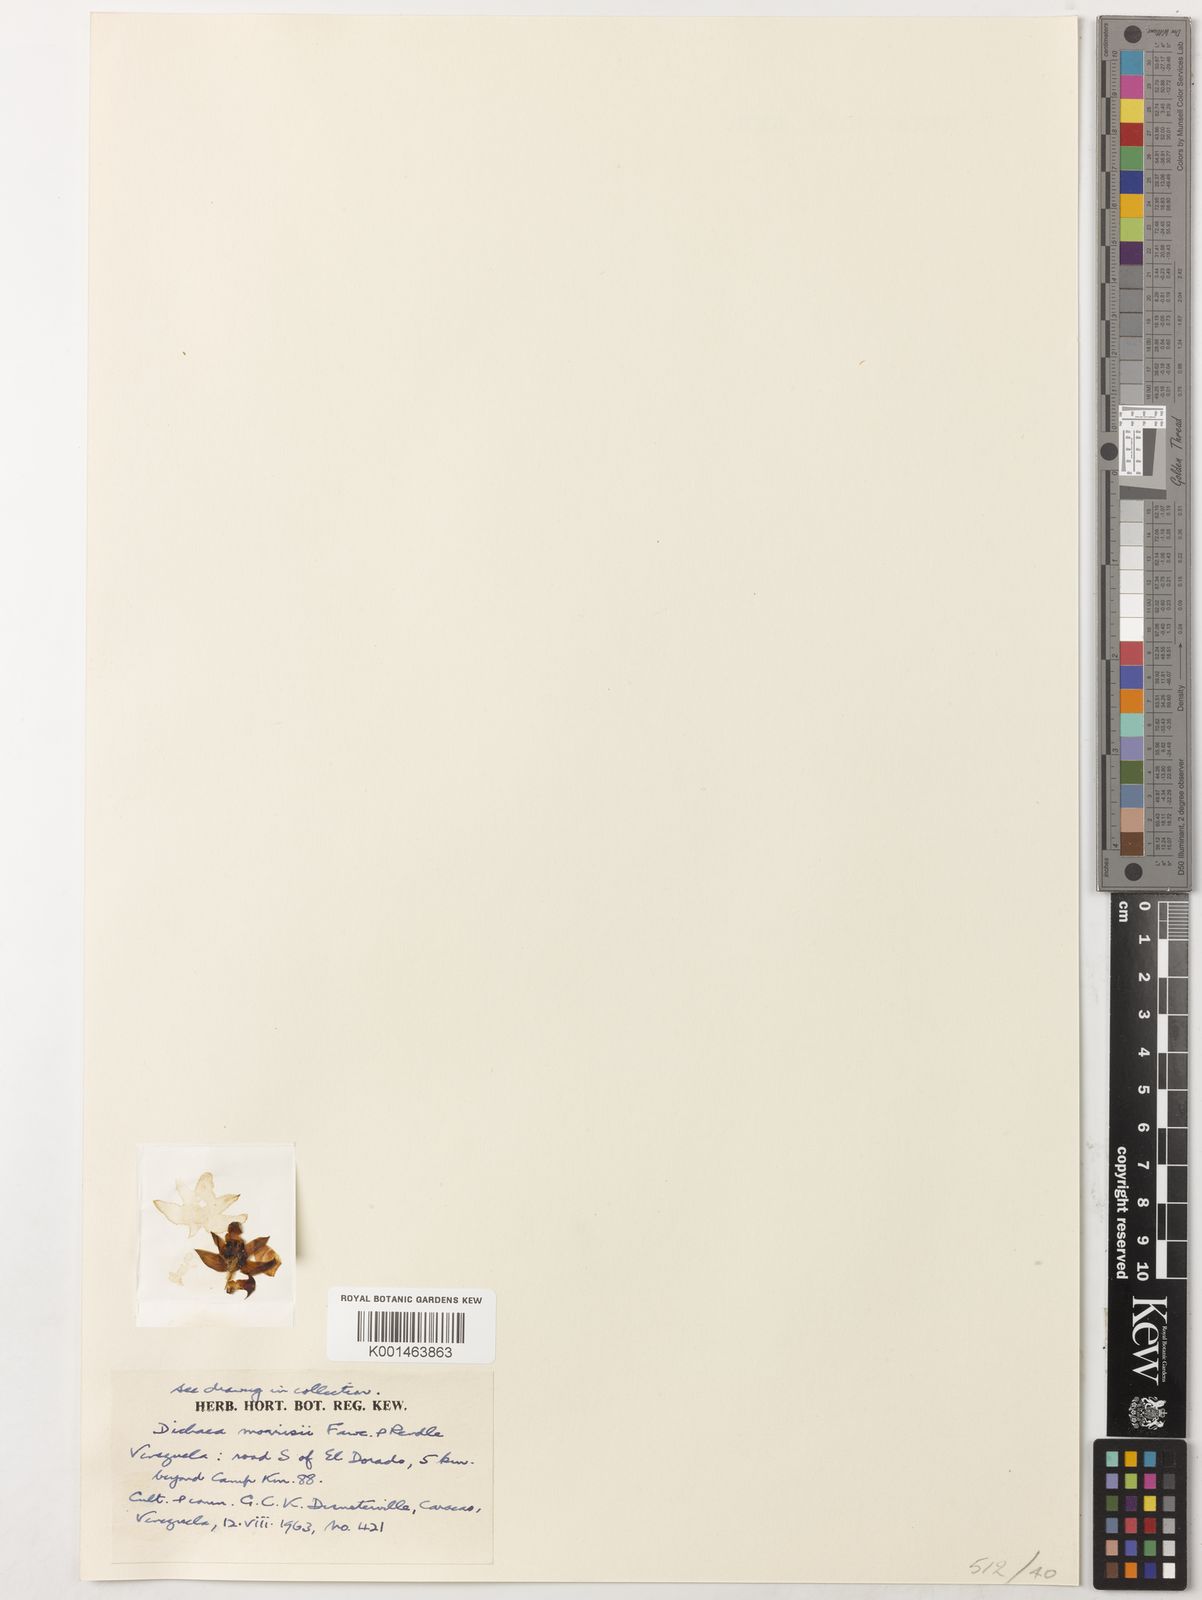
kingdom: Plantae
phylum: Tracheophyta
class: Liliopsida
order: Asparagales
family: Orchidaceae
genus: Dichaea
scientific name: Dichaea morrisii
